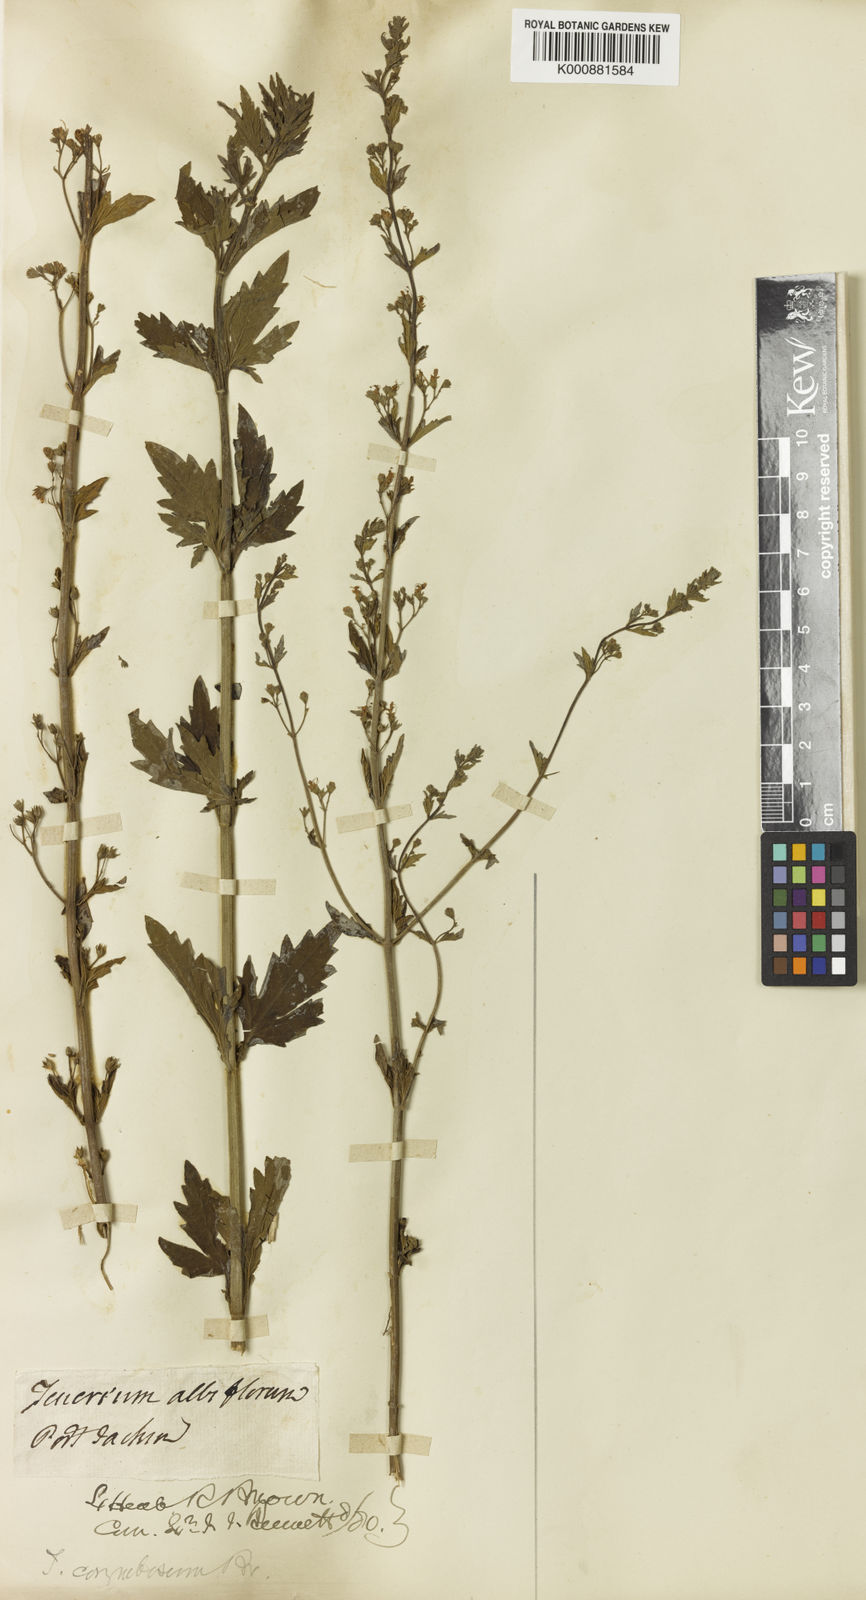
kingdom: Plantae
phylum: Tracheophyta
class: Magnoliopsida
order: Lamiales
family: Lamiaceae
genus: Teucrium
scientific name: Teucrium corymbosum
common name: Forest germander
